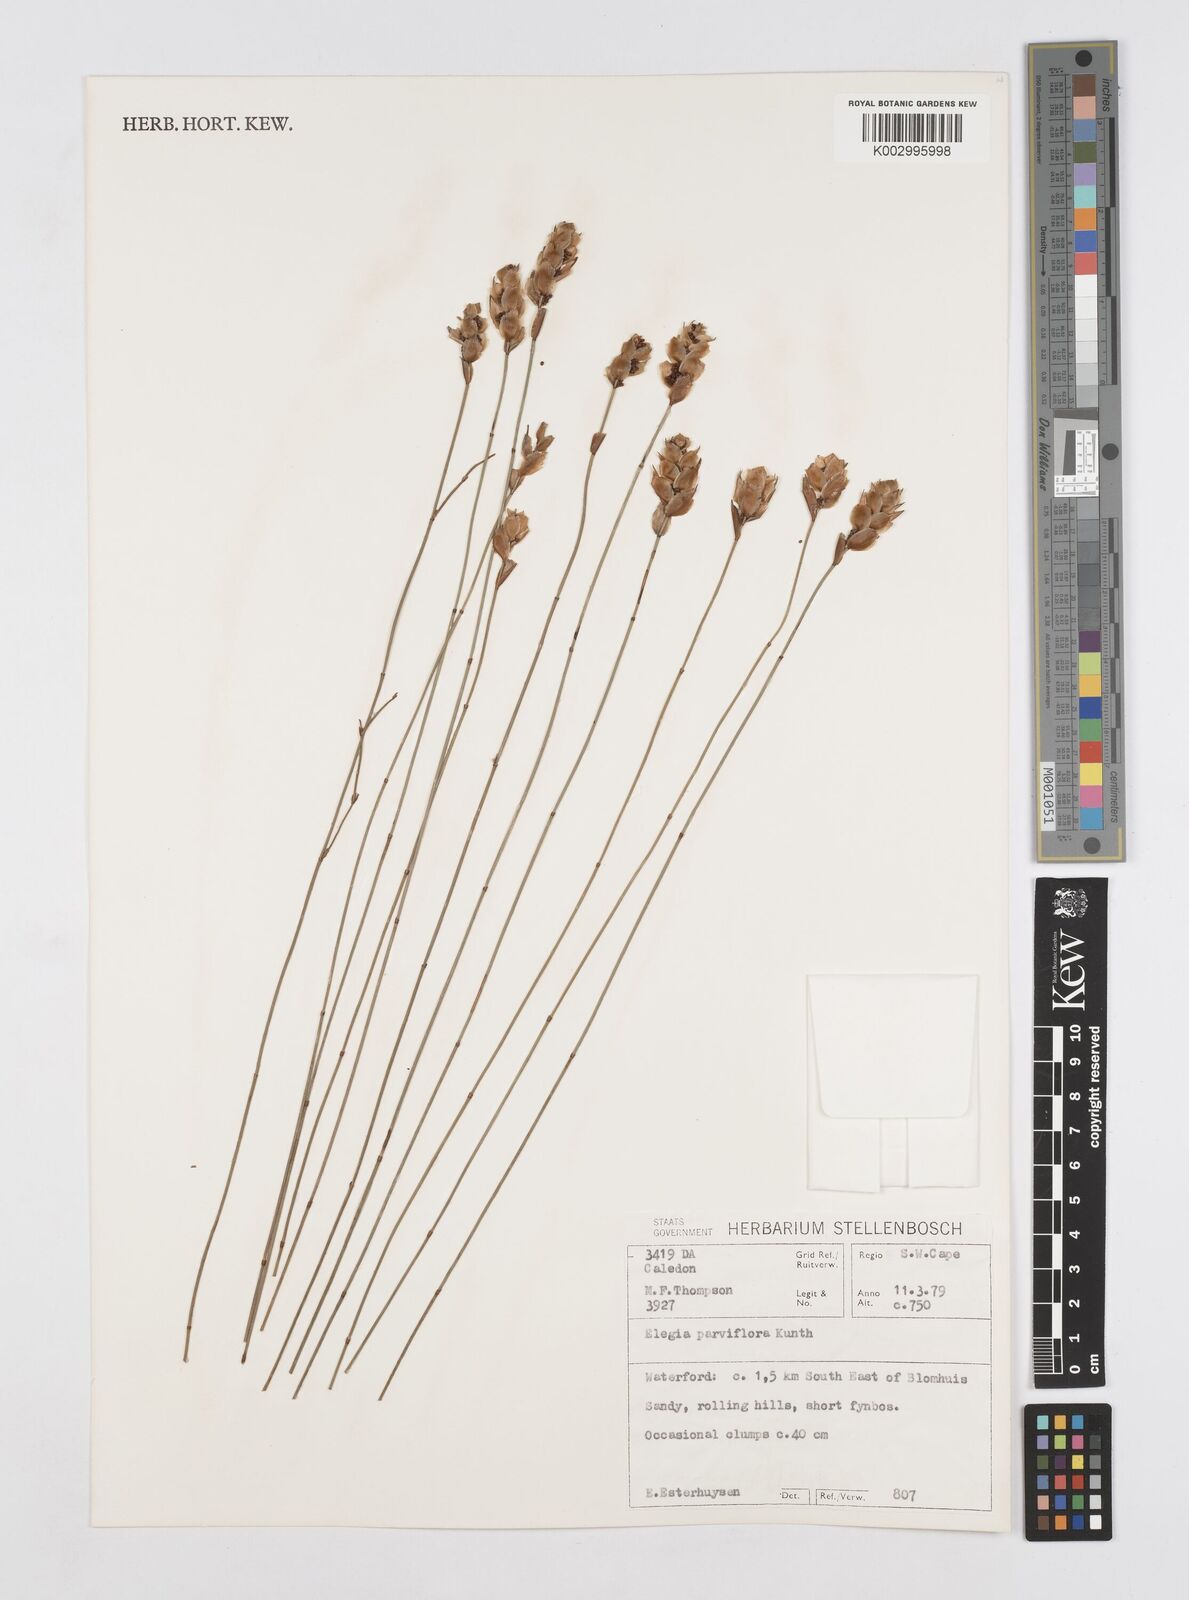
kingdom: Plantae
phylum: Tracheophyta
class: Liliopsida
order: Poales
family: Restionaceae
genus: Cannomois
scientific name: Cannomois parviflora
